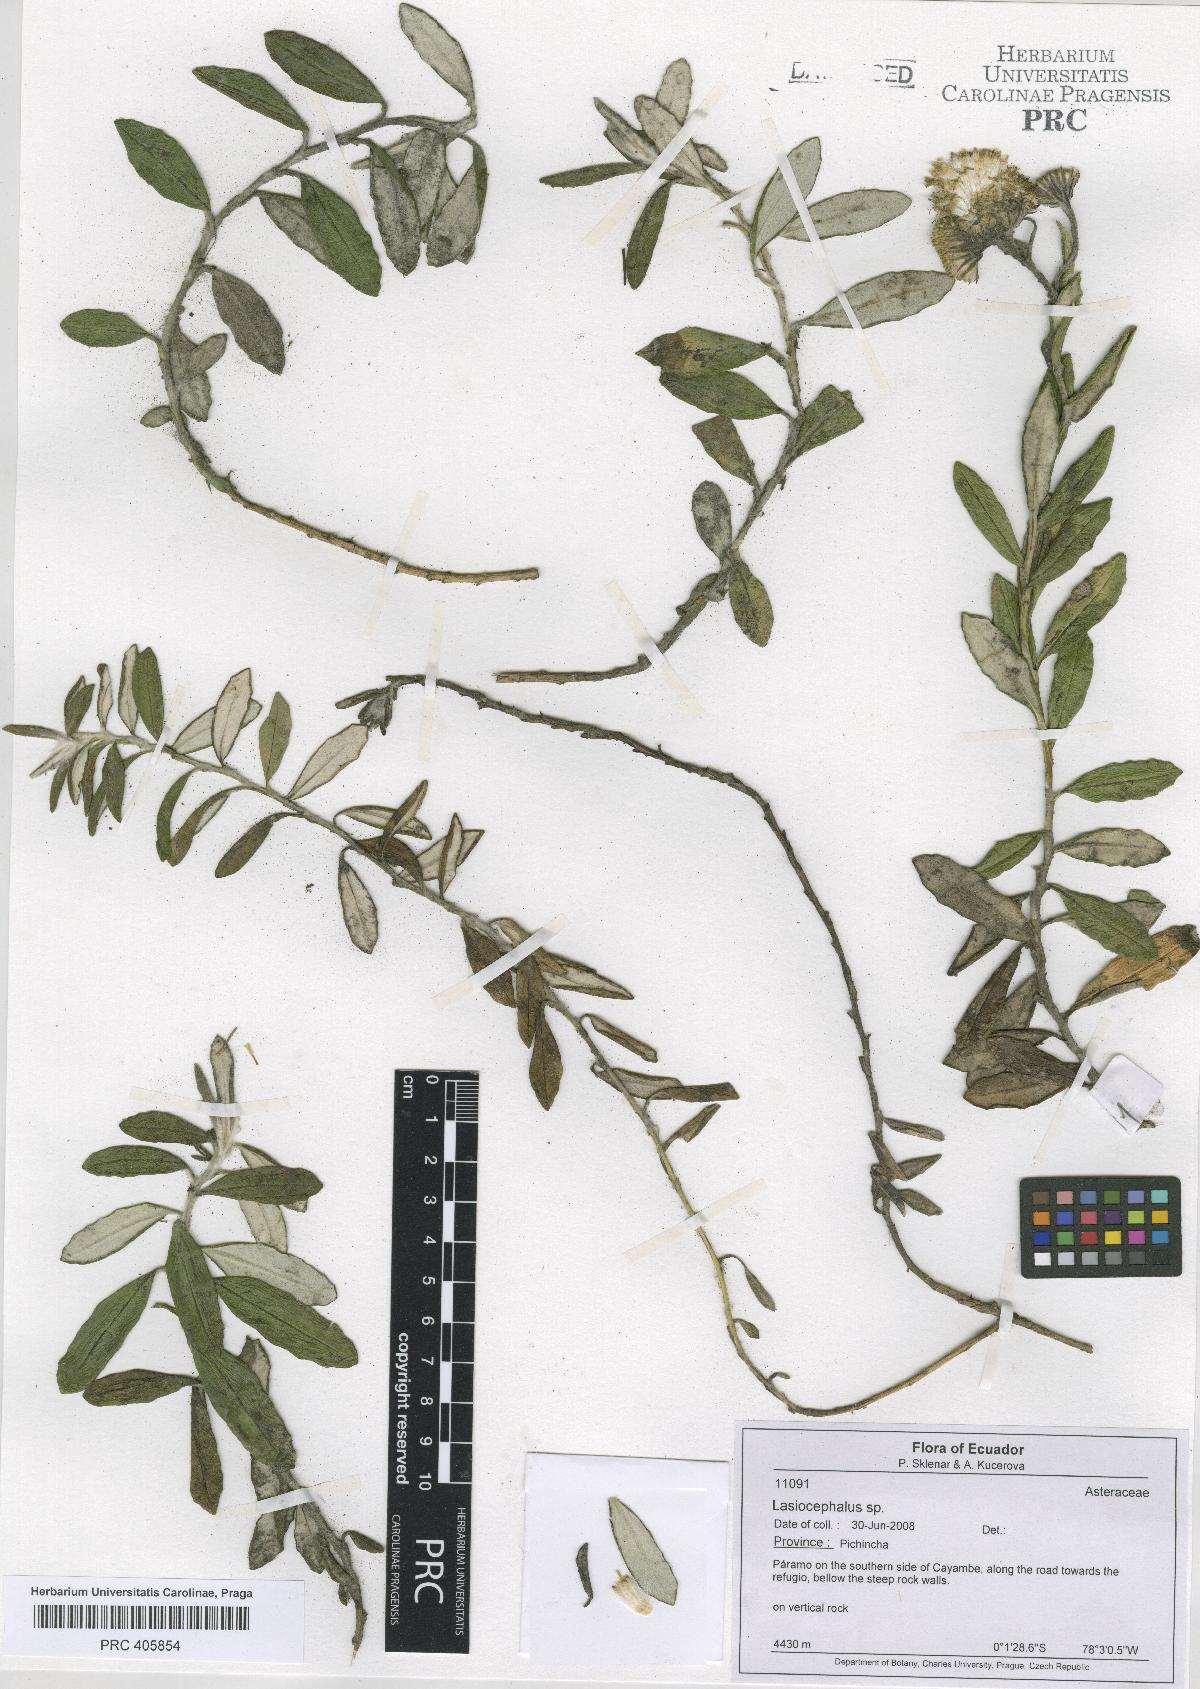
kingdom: Plantae
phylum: Tracheophyta
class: Magnoliopsida
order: Asterales
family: Asteraceae
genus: Lasiocephalus
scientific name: Lasiocephalus
